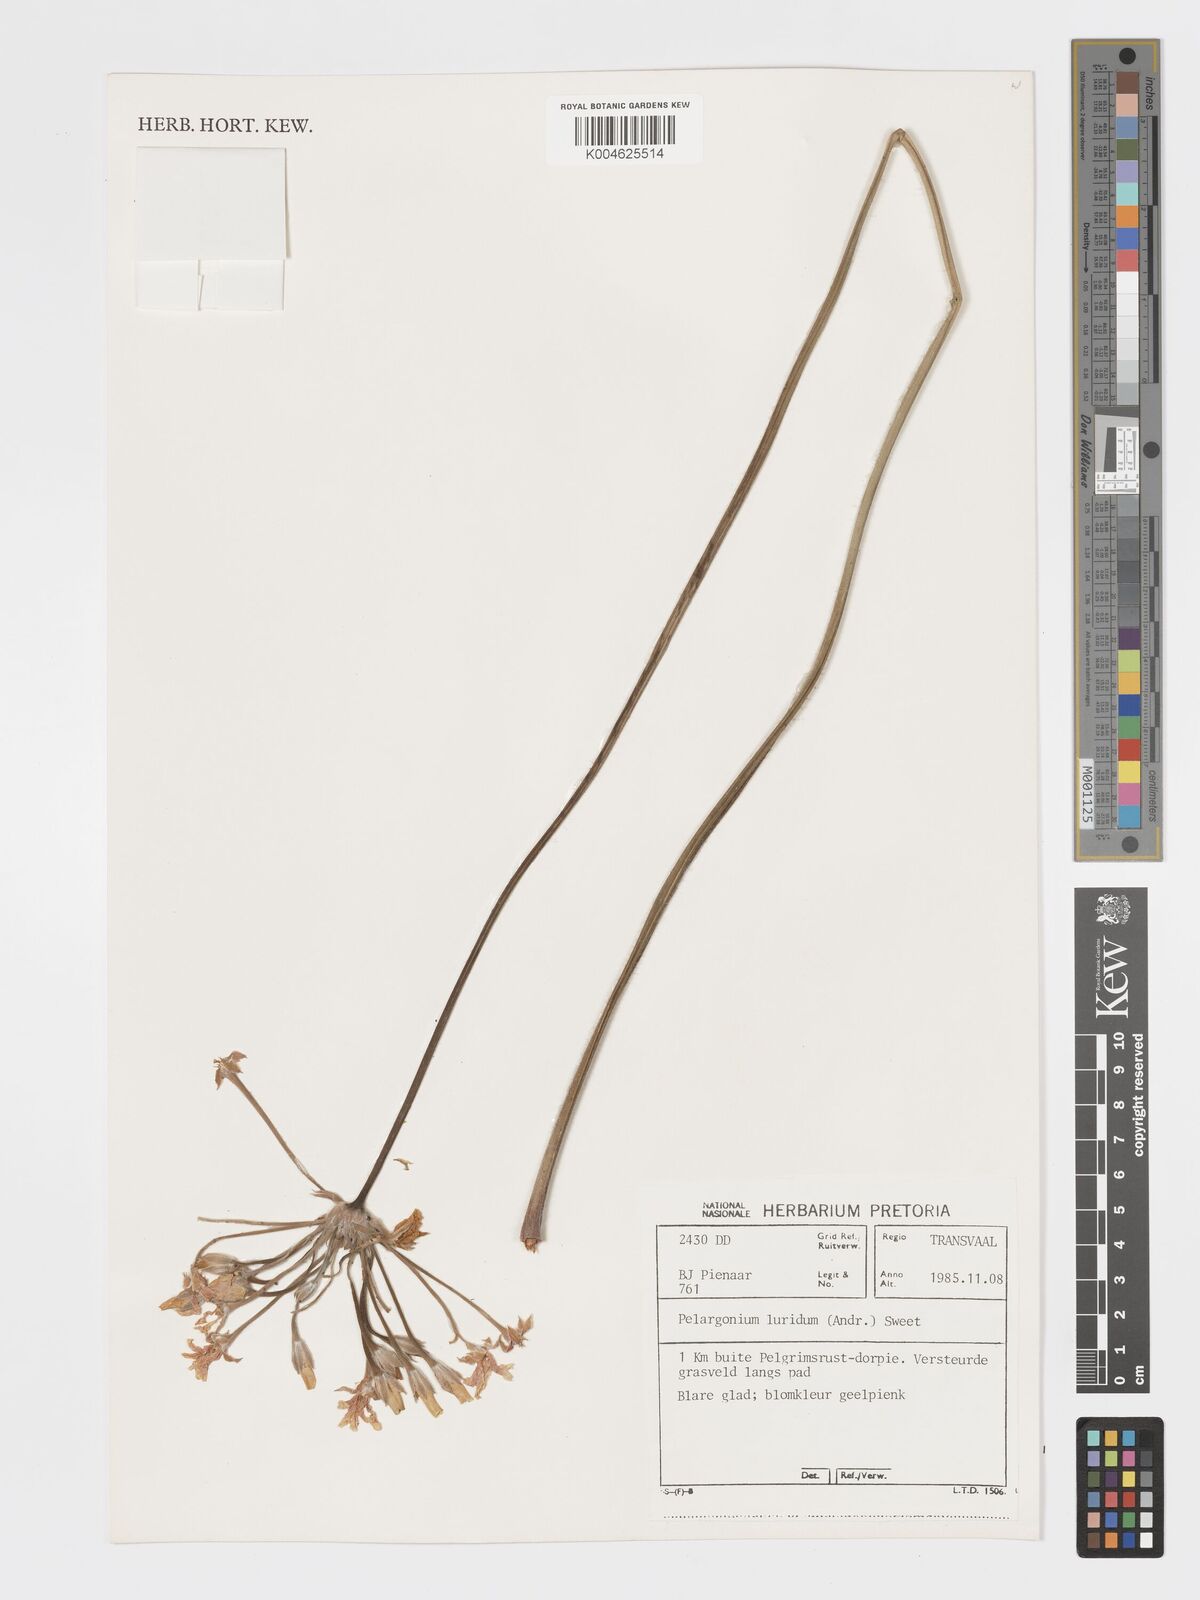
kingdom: Plantae
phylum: Tracheophyta
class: Magnoliopsida
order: Geraniales
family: Geraniaceae
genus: Pelargonium
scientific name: Pelargonium luridum
